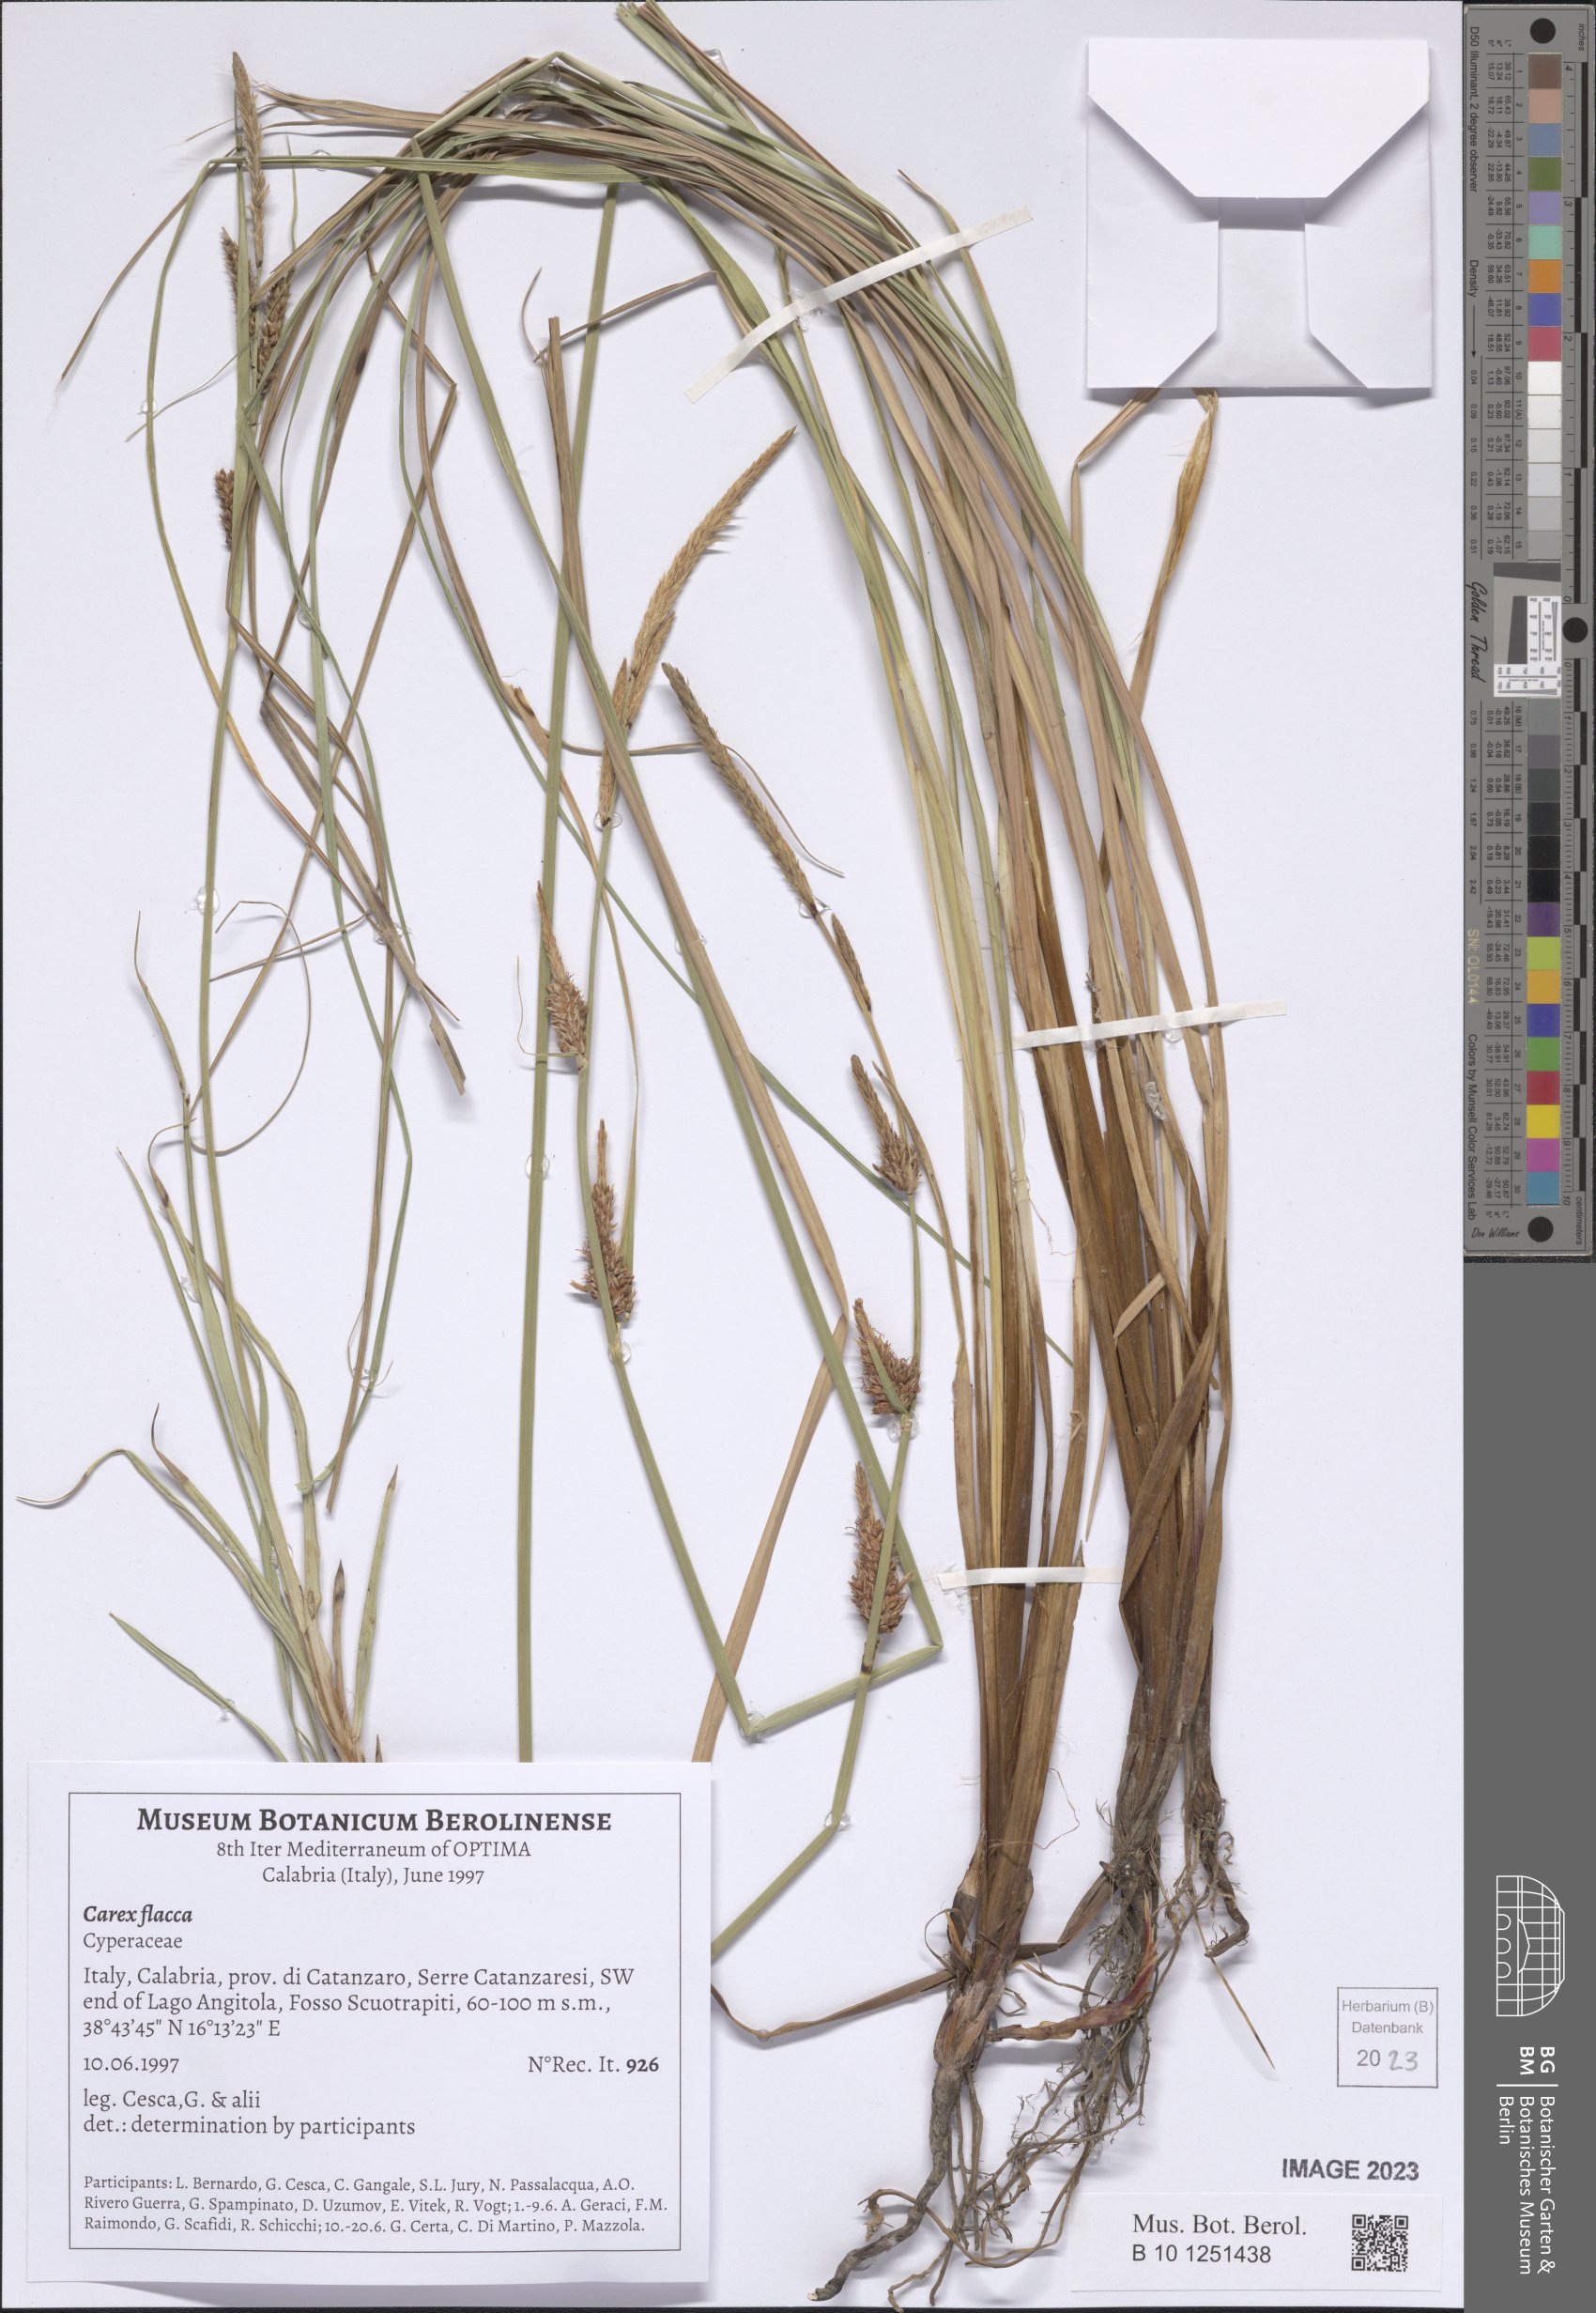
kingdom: Plantae
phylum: Tracheophyta
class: Liliopsida
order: Poales
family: Cyperaceae
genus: Carex
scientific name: Carex flacca
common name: Glaucous sedge
